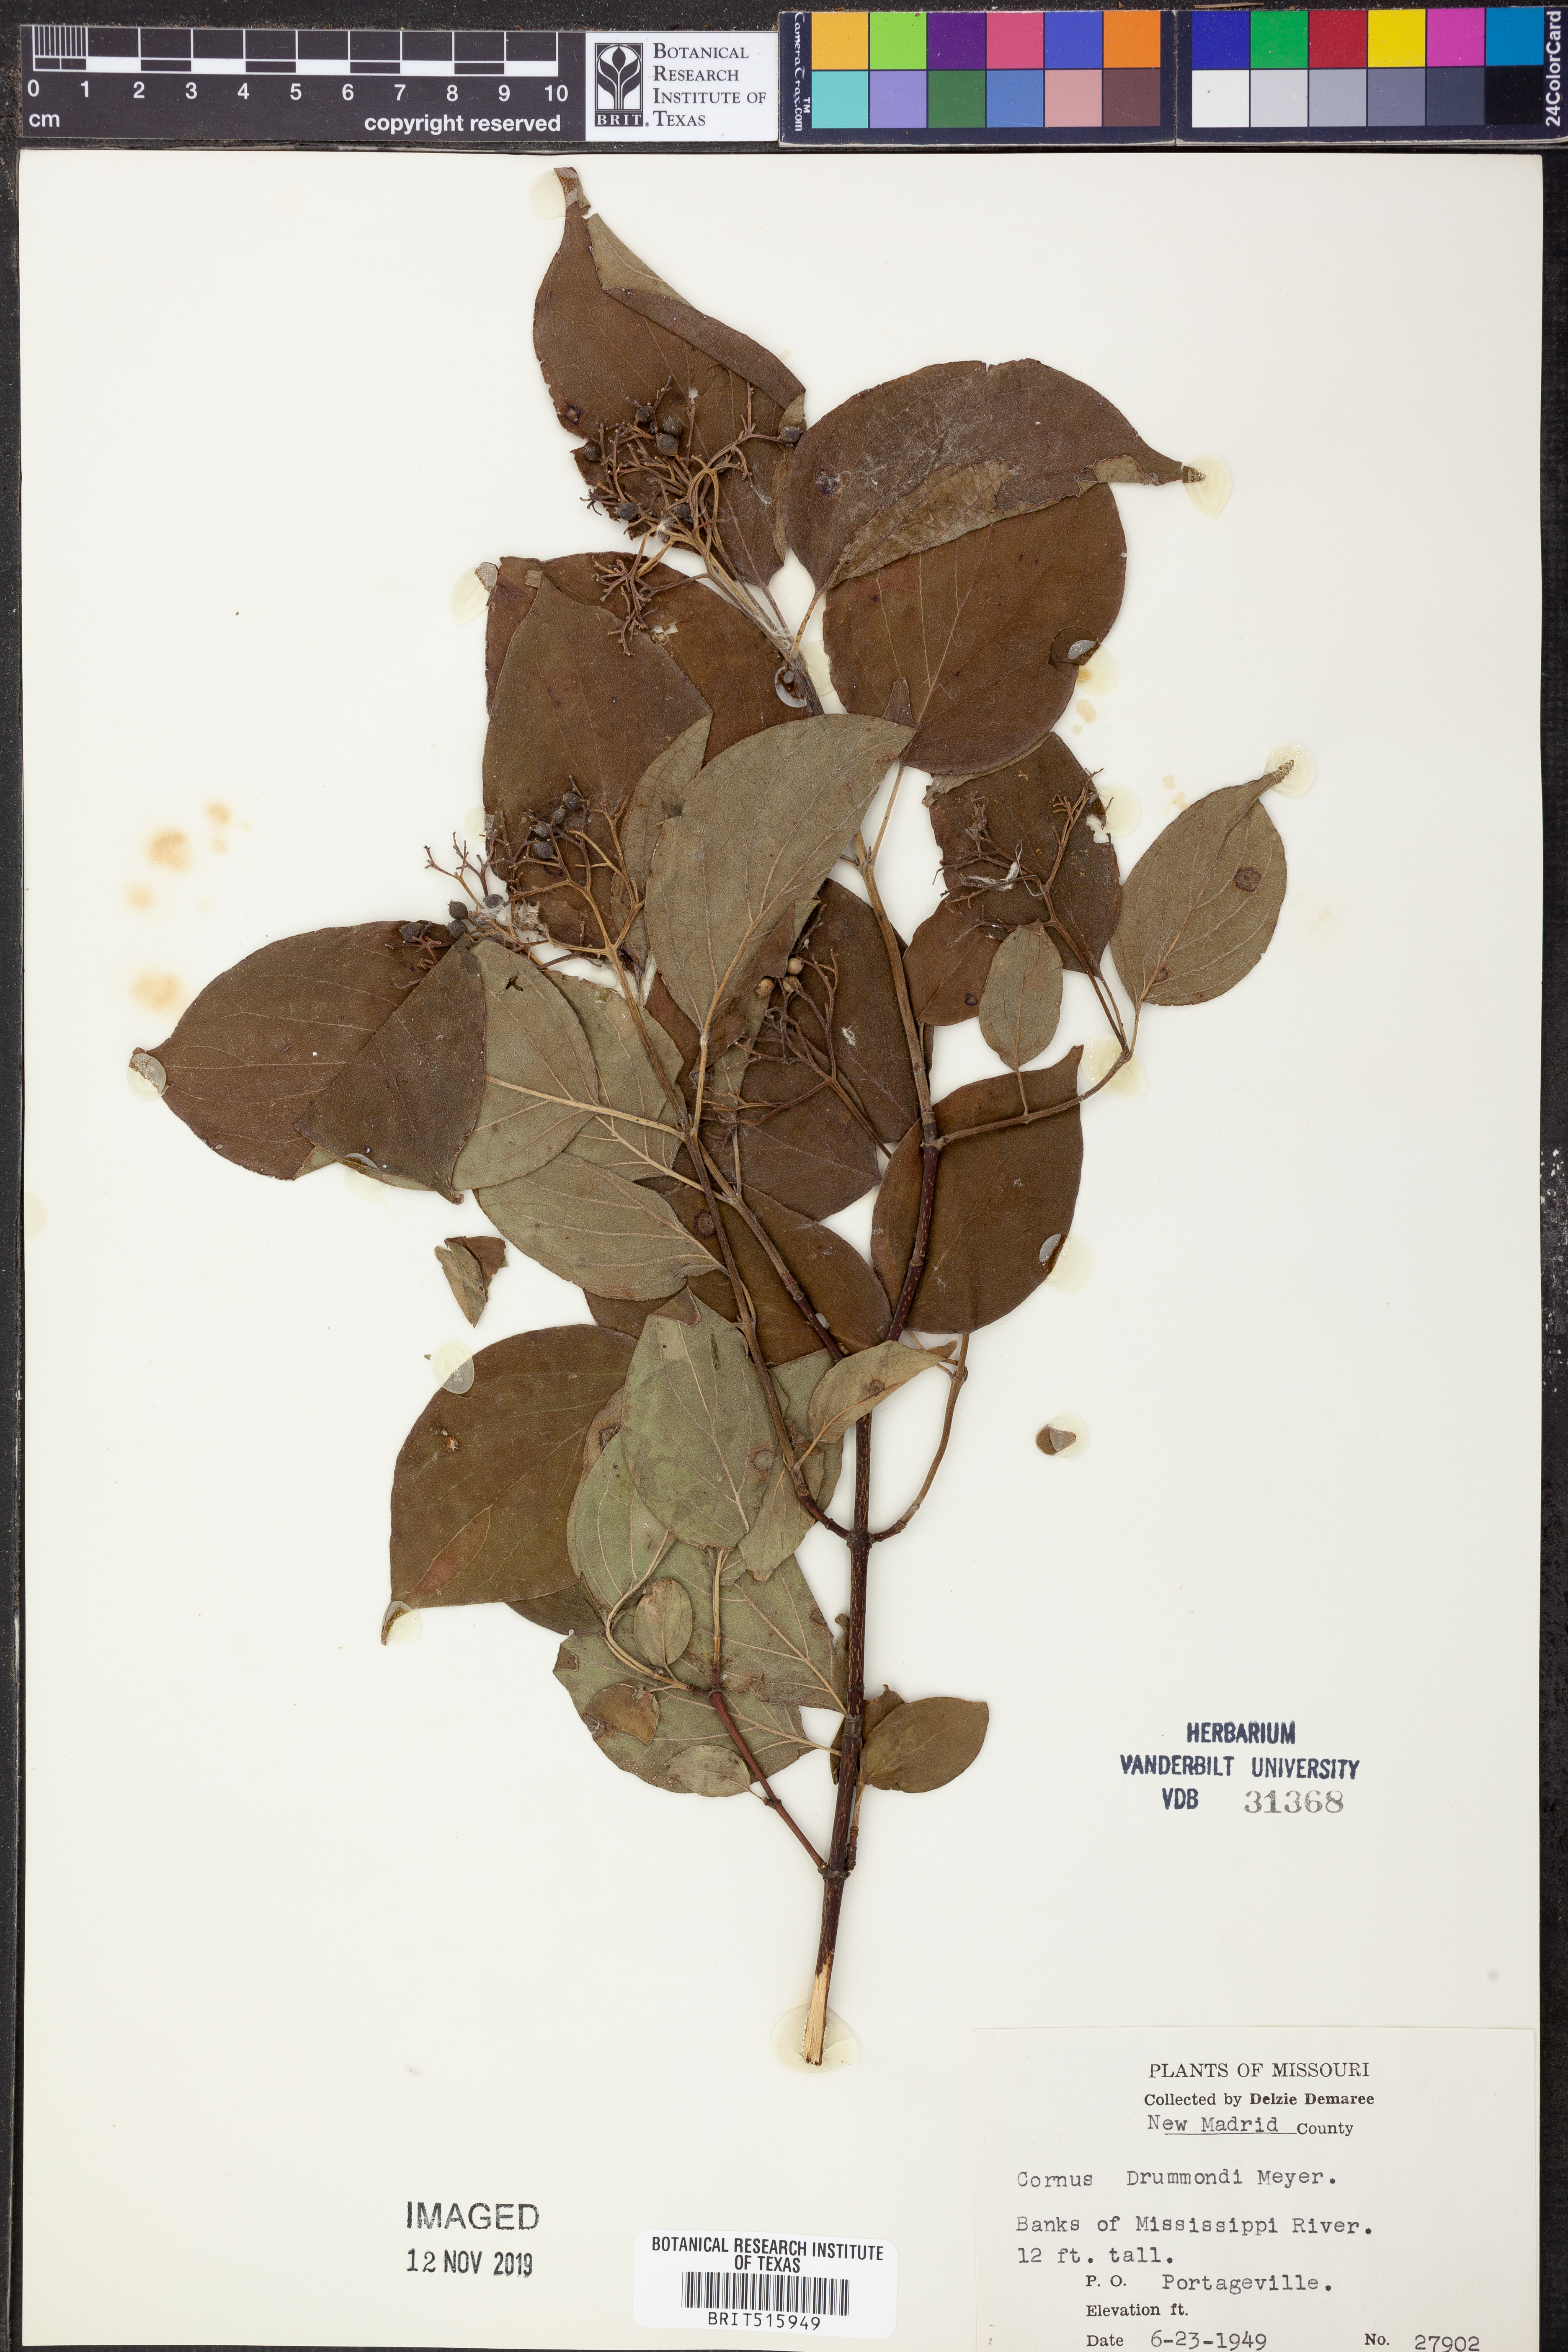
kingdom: Plantae
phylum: Tracheophyta
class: Magnoliopsida
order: Cornales
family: Cornaceae
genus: Cornus
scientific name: Cornus drummondii
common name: Rough-leaf dogwood
